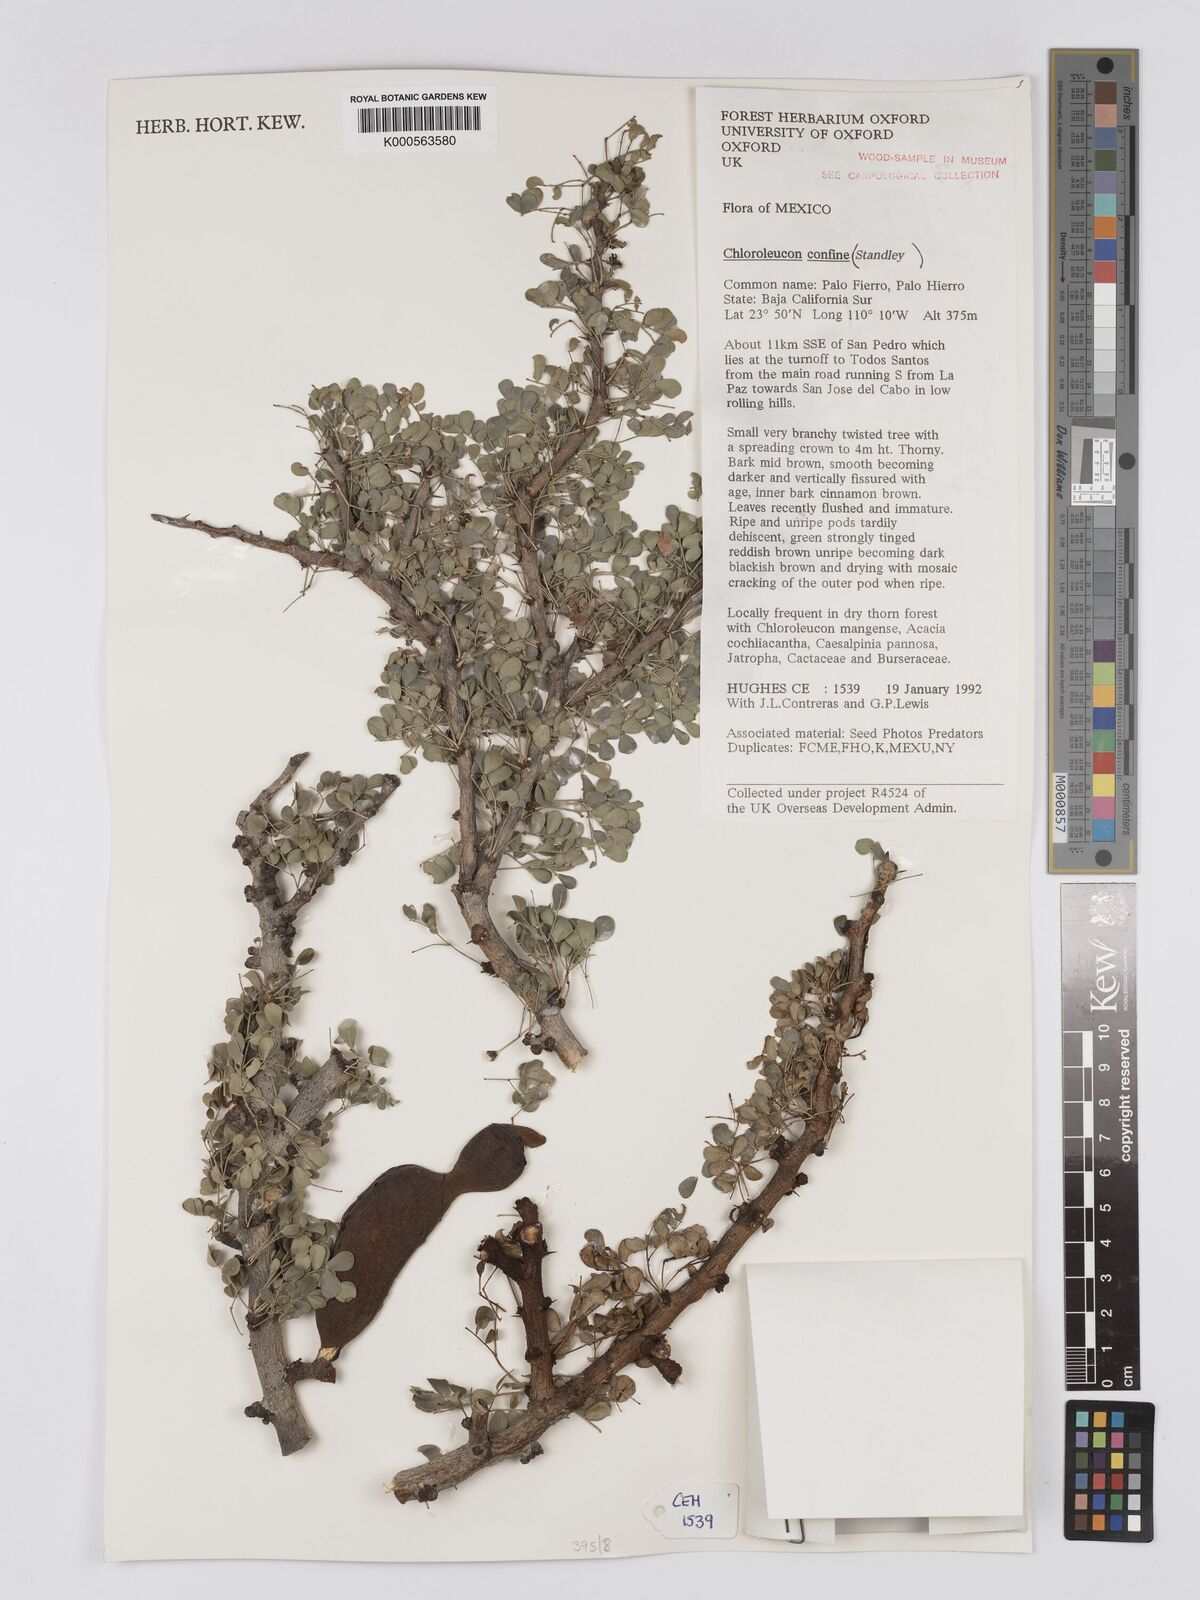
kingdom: Plantae
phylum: Tracheophyta
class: Magnoliopsida
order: Fabales
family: Fabaceae
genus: Chloroleucon
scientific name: Chloroleucon
